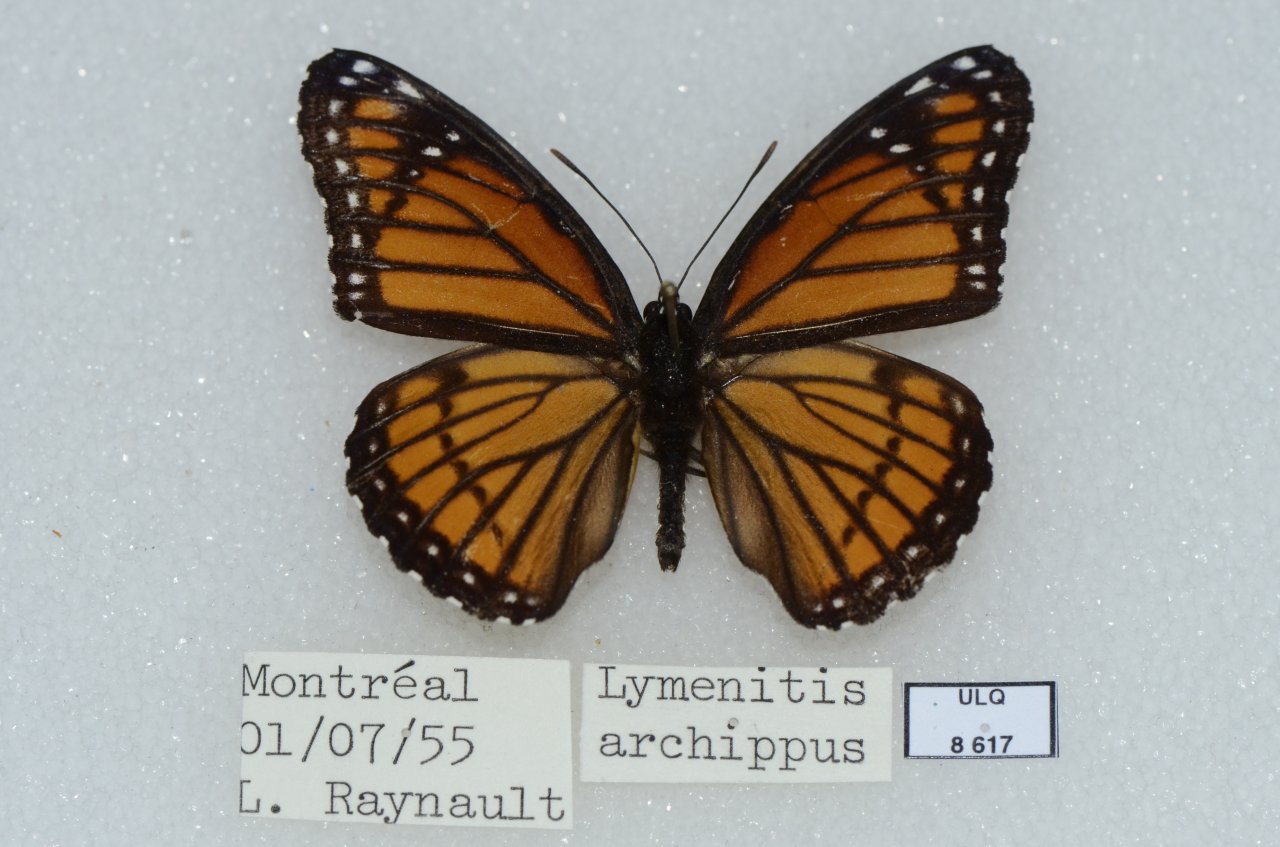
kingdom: Animalia
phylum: Arthropoda
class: Insecta
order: Lepidoptera
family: Nymphalidae
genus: Limenitis
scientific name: Limenitis archippus
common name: Viceroy
